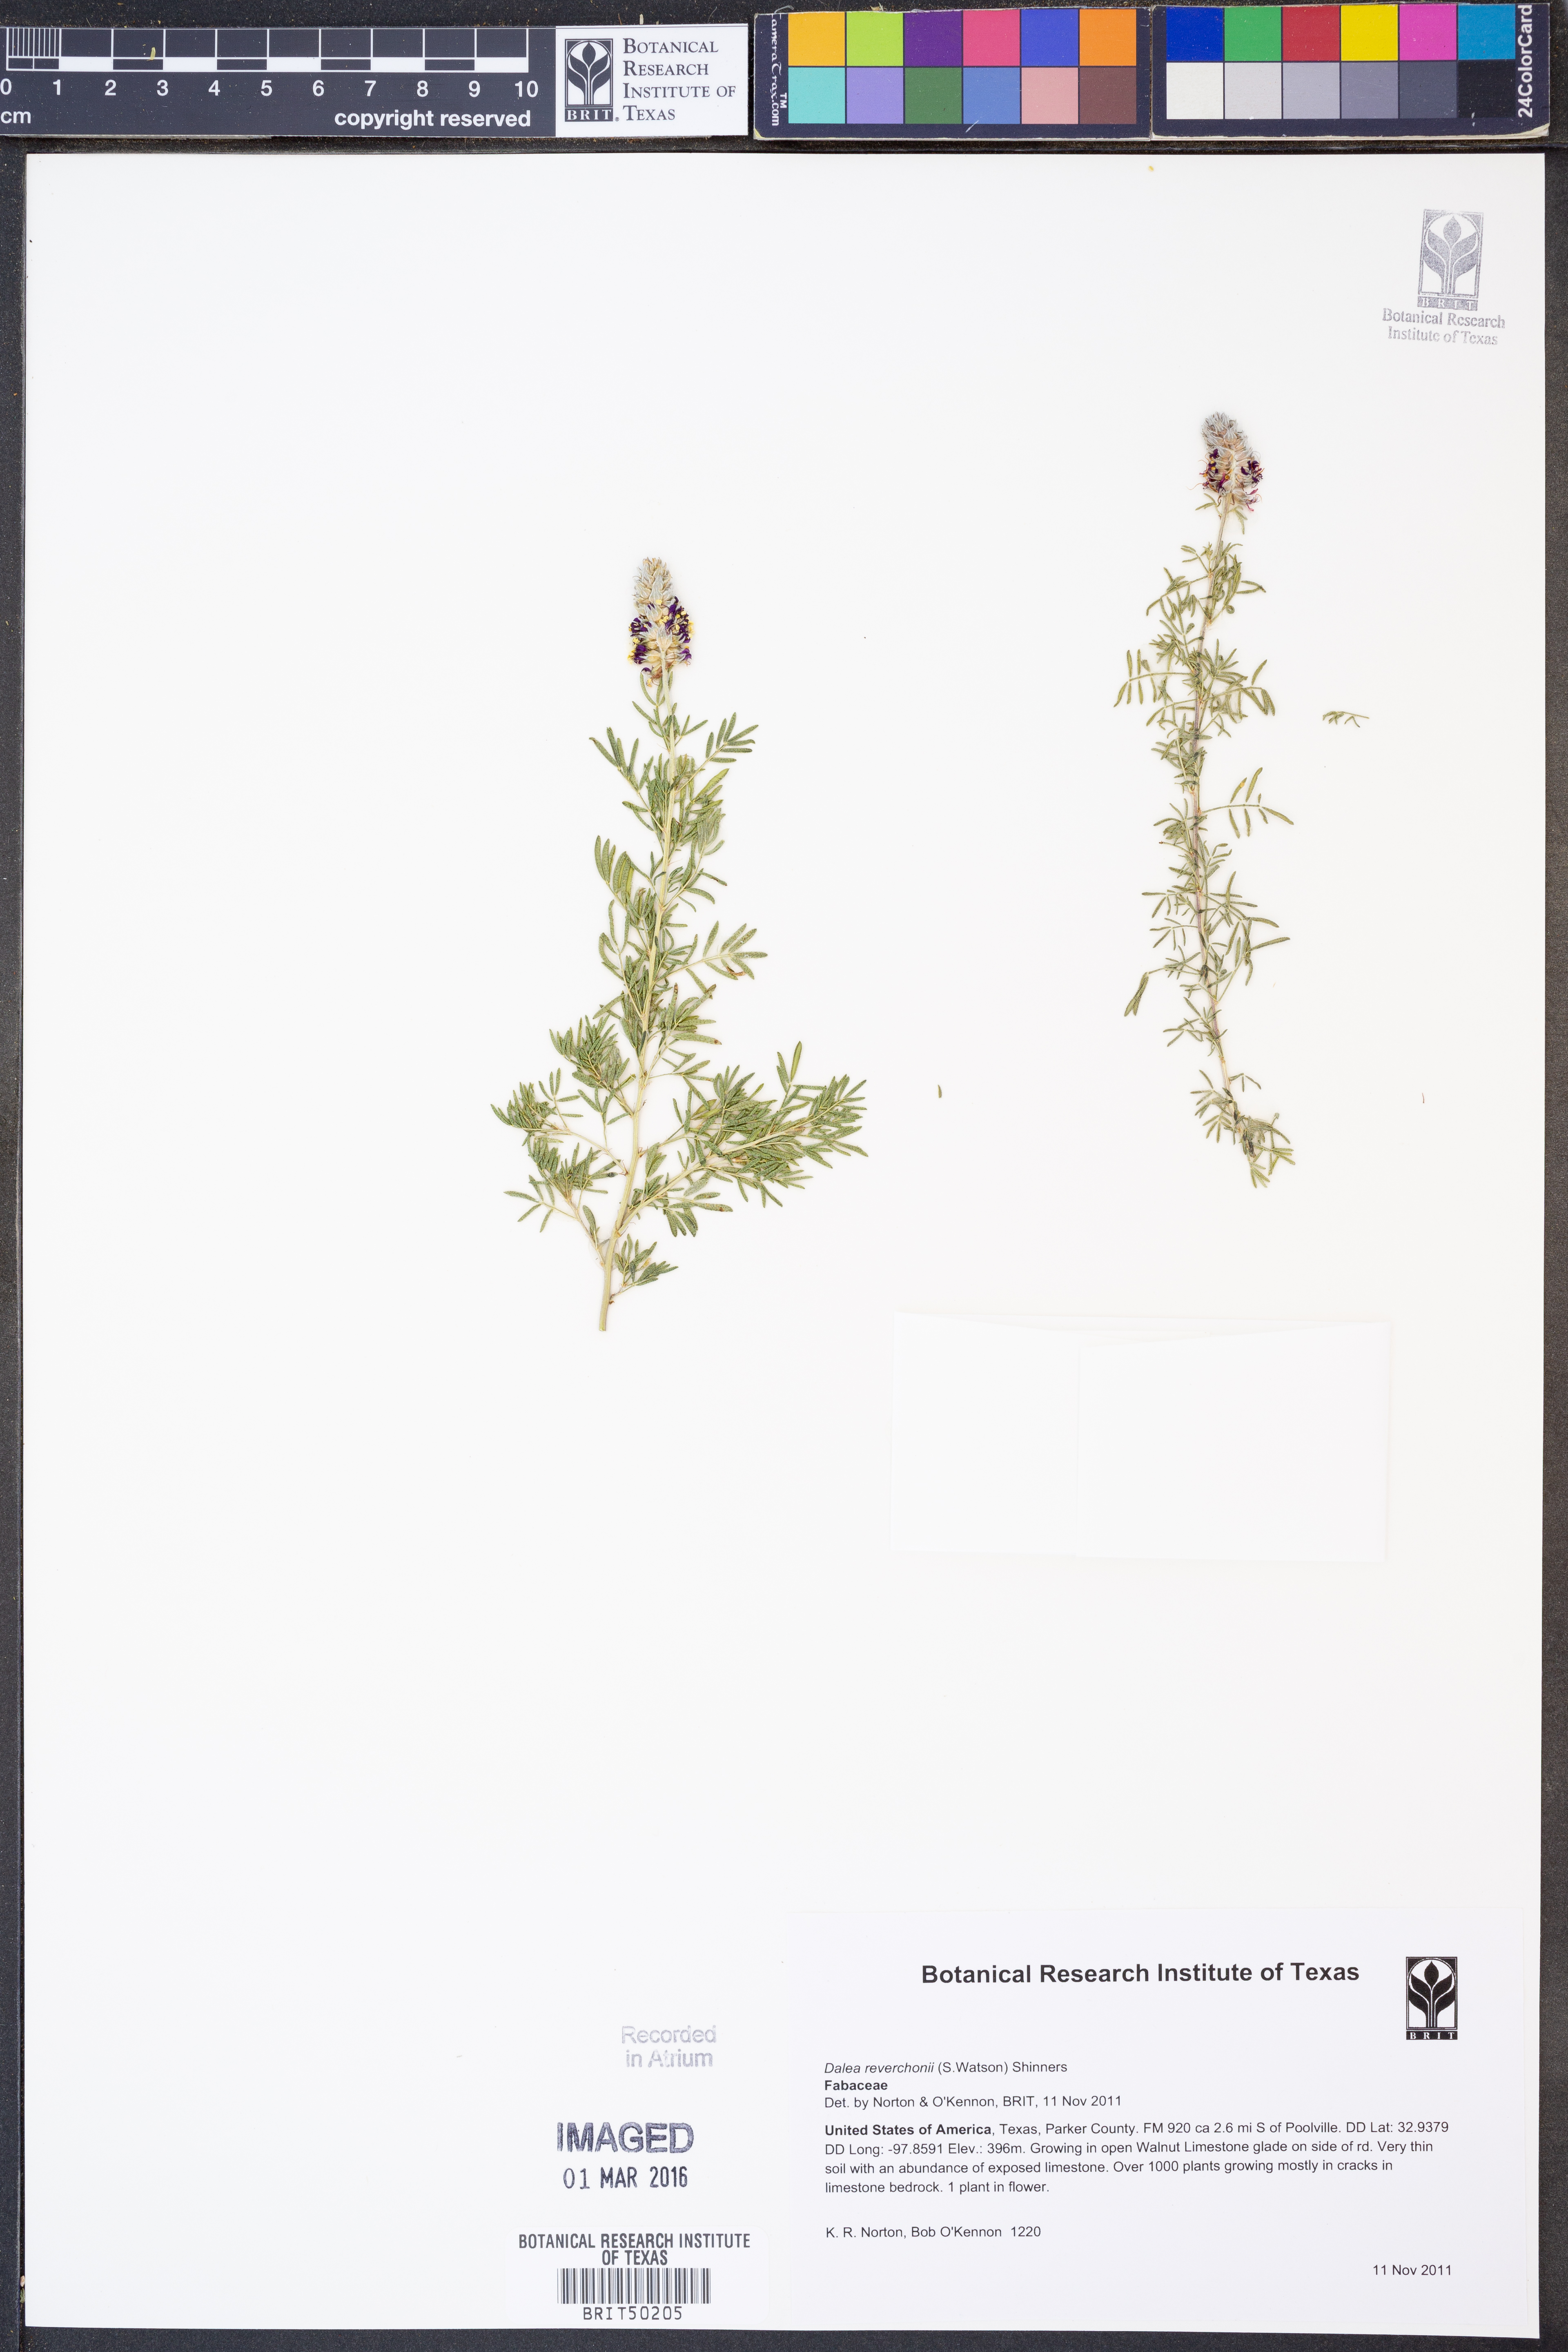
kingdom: Plantae
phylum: Tracheophyta
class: Magnoliopsida
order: Fabales
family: Fabaceae
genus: Dalea
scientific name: Dalea reverchonii
